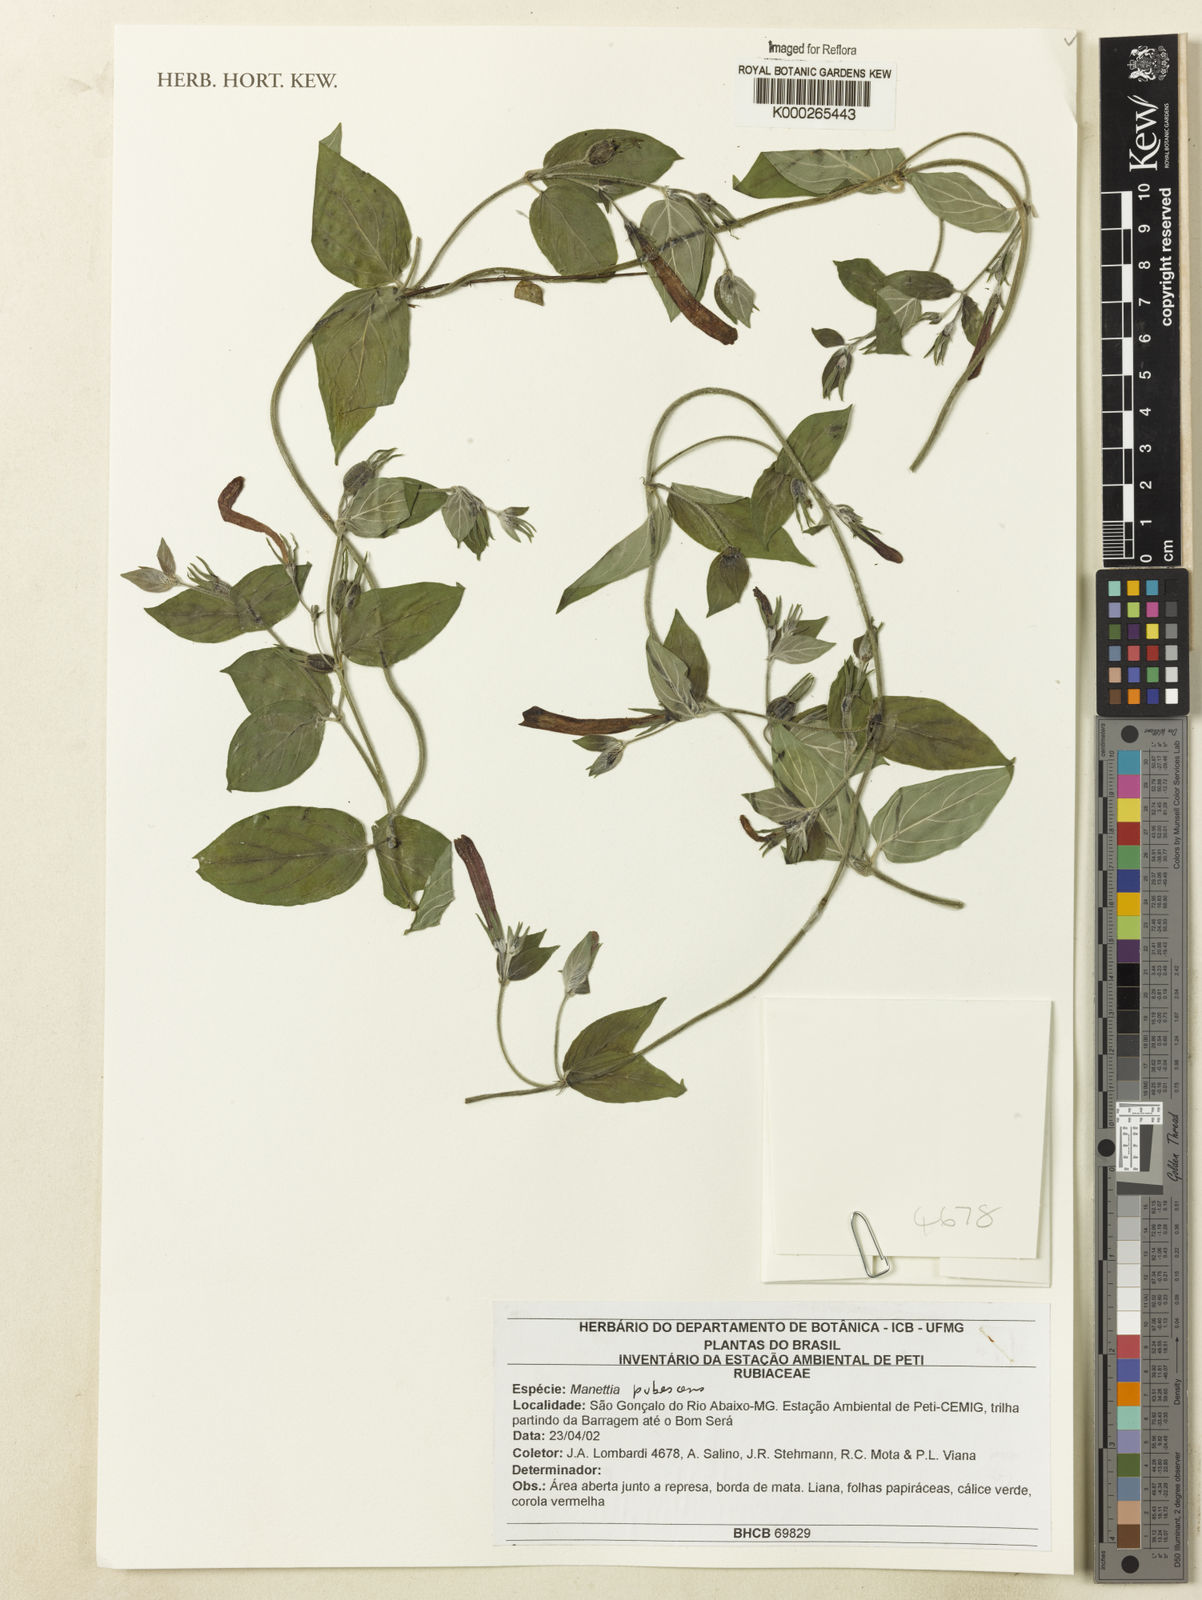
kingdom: Plantae
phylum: Tracheophyta
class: Magnoliopsida
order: Gentianales
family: Rubiaceae
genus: Manettia
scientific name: Manettia pubescens
